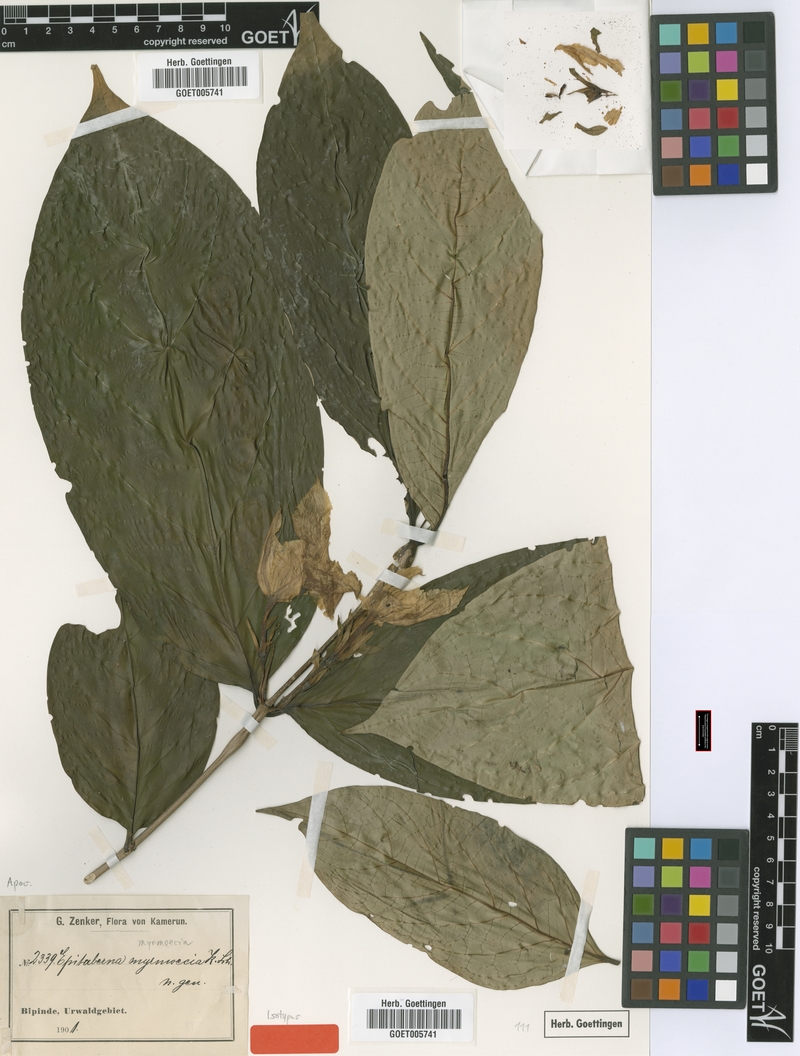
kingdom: Plantae
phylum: Tracheophyta
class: Magnoliopsida
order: Gentianales
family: Rubiaceae
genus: Heinsia
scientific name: Heinsia myrmoecia
